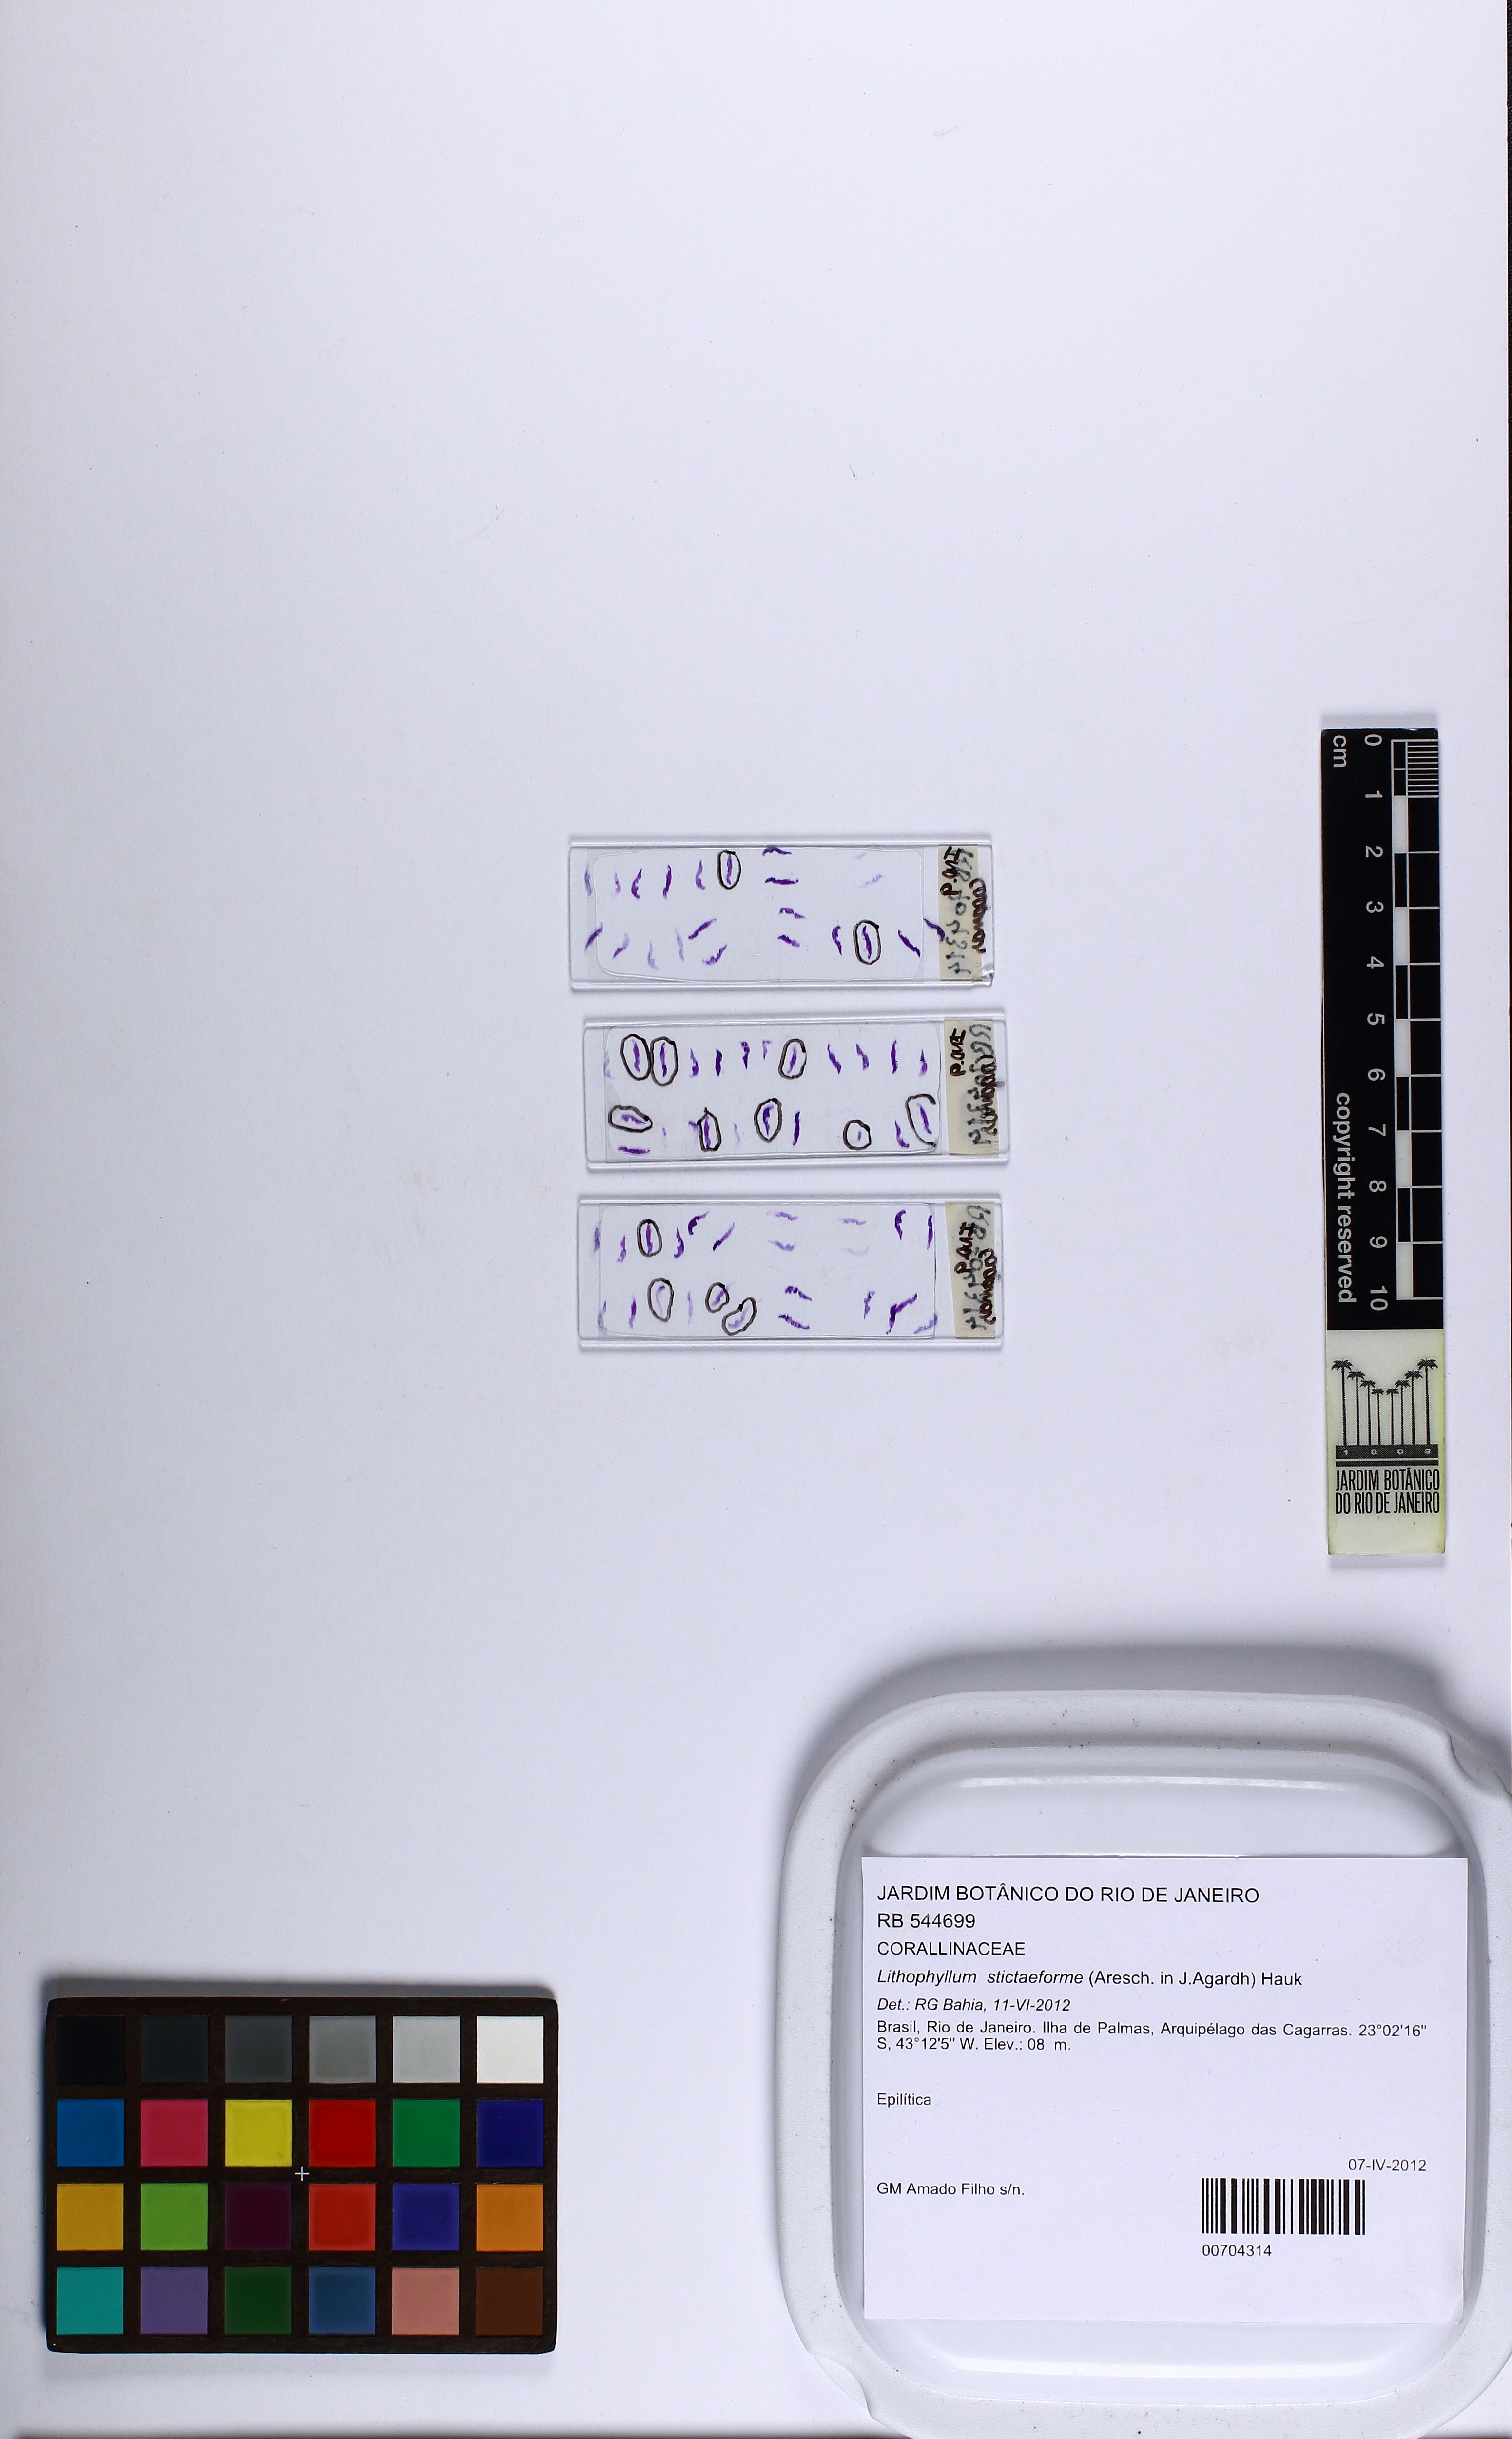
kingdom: Plantae
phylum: Rhodophyta
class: Florideophyceae
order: Corallinales
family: Lithophyllaceae
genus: Lithophyllum
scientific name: Lithophyllum stictaeforme
